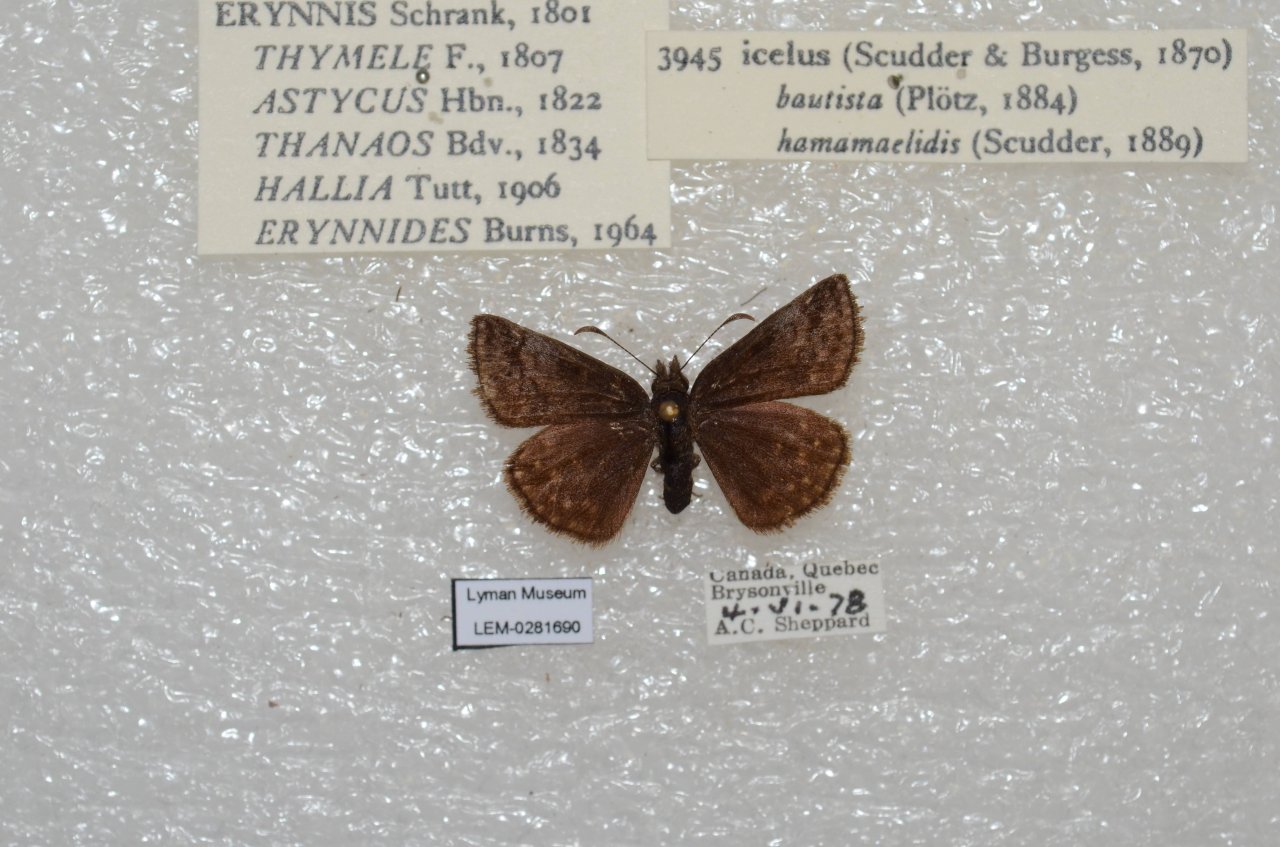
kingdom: Animalia
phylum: Arthropoda
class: Insecta
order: Lepidoptera
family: Hesperiidae
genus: Erynnis
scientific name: Erynnis icelus
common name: Dreamy Duskywing
